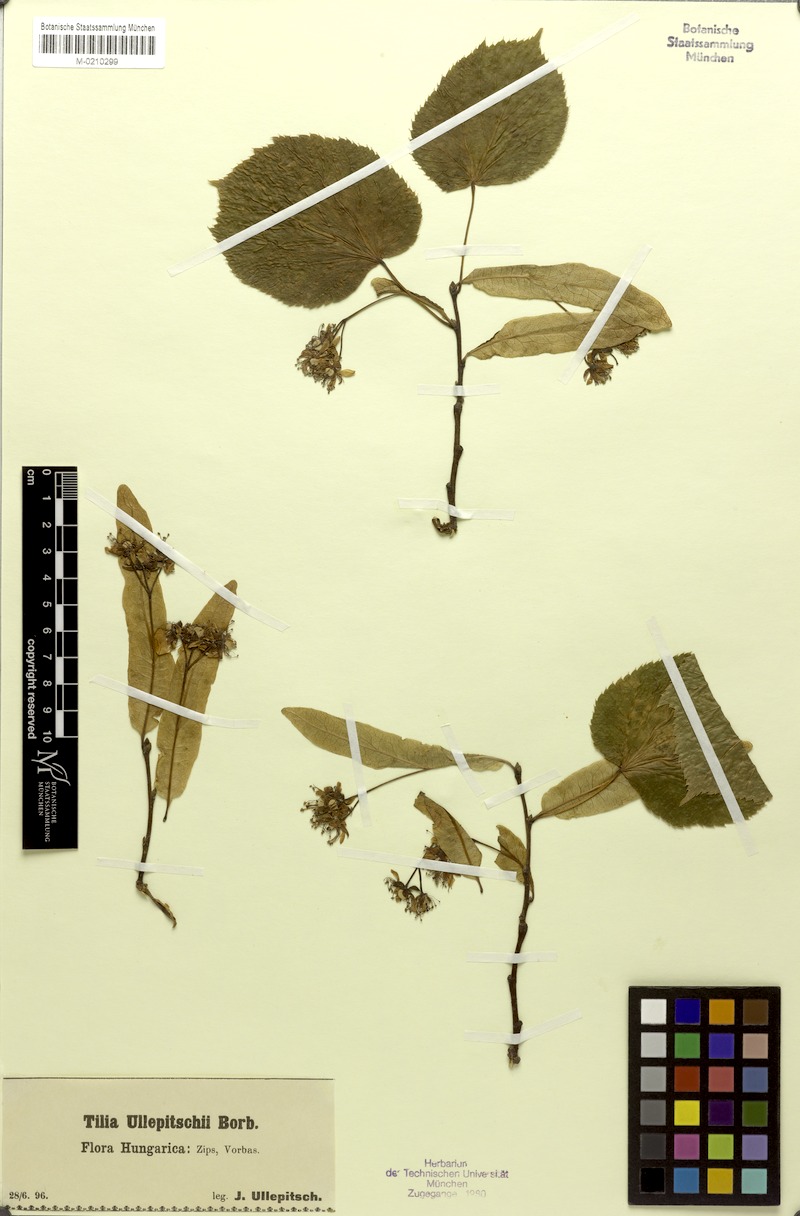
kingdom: Plantae
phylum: Tracheophyta
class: Magnoliopsida
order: Malvales
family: Malvaceae
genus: Tilia
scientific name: Tilia platyphyllos
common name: Large-leaved lime
